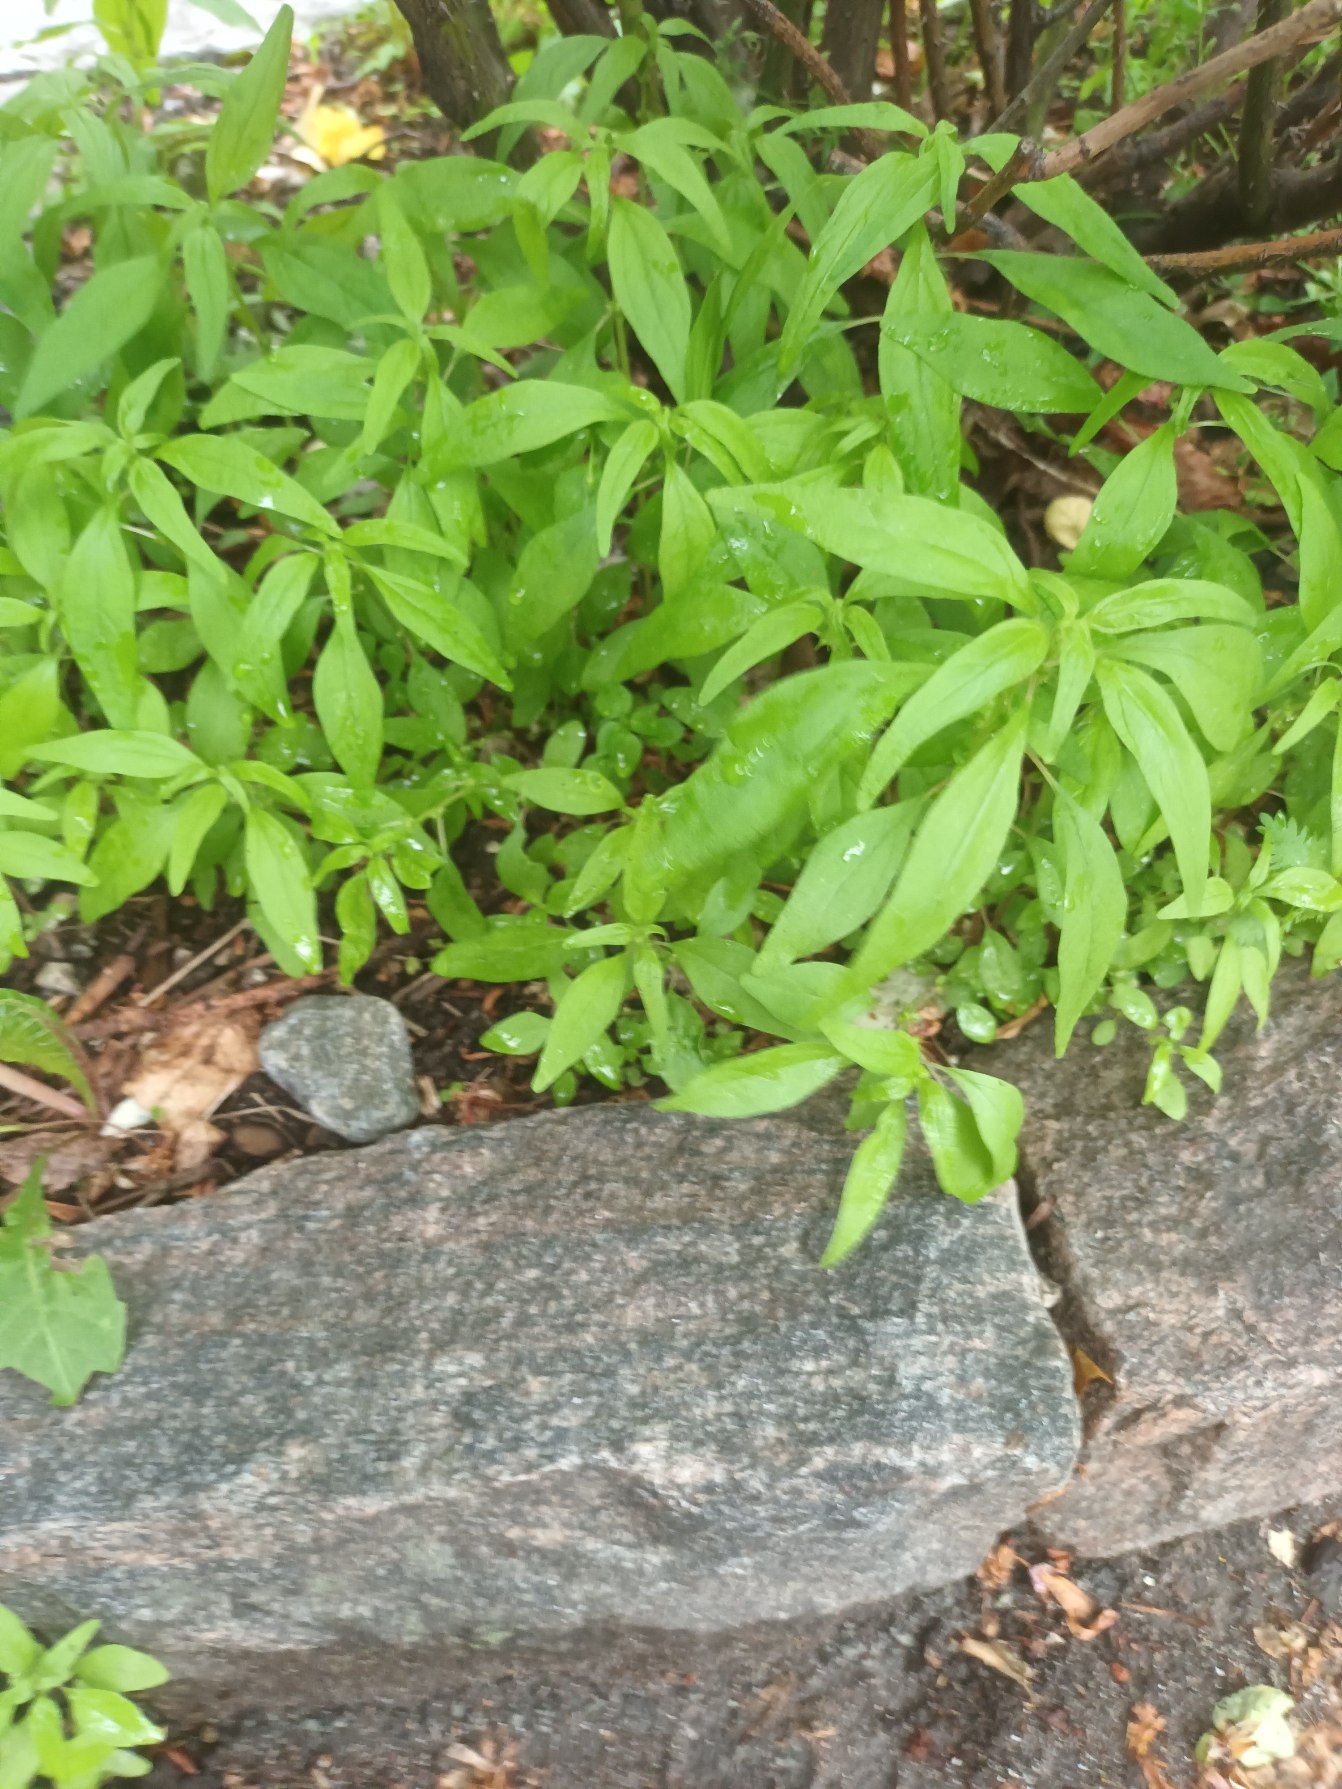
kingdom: Plantae
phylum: Tracheophyta
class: Magnoliopsida
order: Rosales
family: Urticaceae
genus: Parietaria
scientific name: Parietaria pensylvanica
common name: Amerikansk springknap
